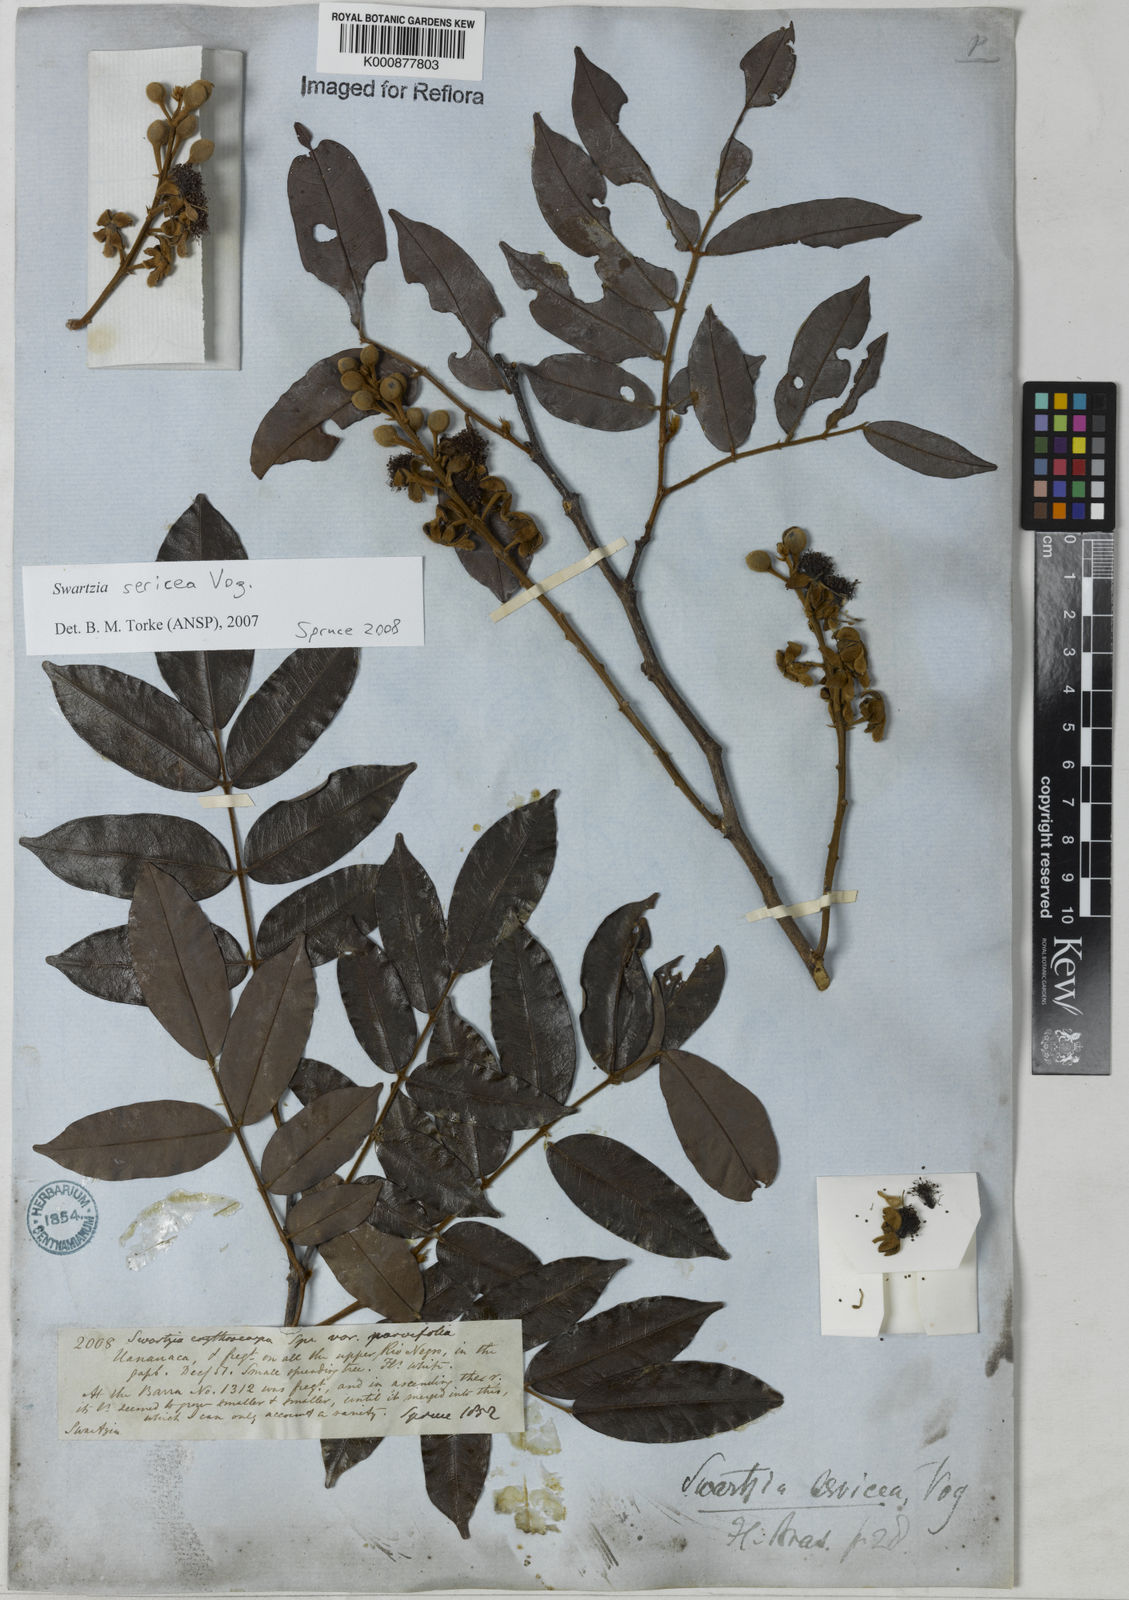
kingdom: Plantae
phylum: Tracheophyta
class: Magnoliopsida
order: Fabales
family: Fabaceae
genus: Swartzia
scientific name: Swartzia sericea
